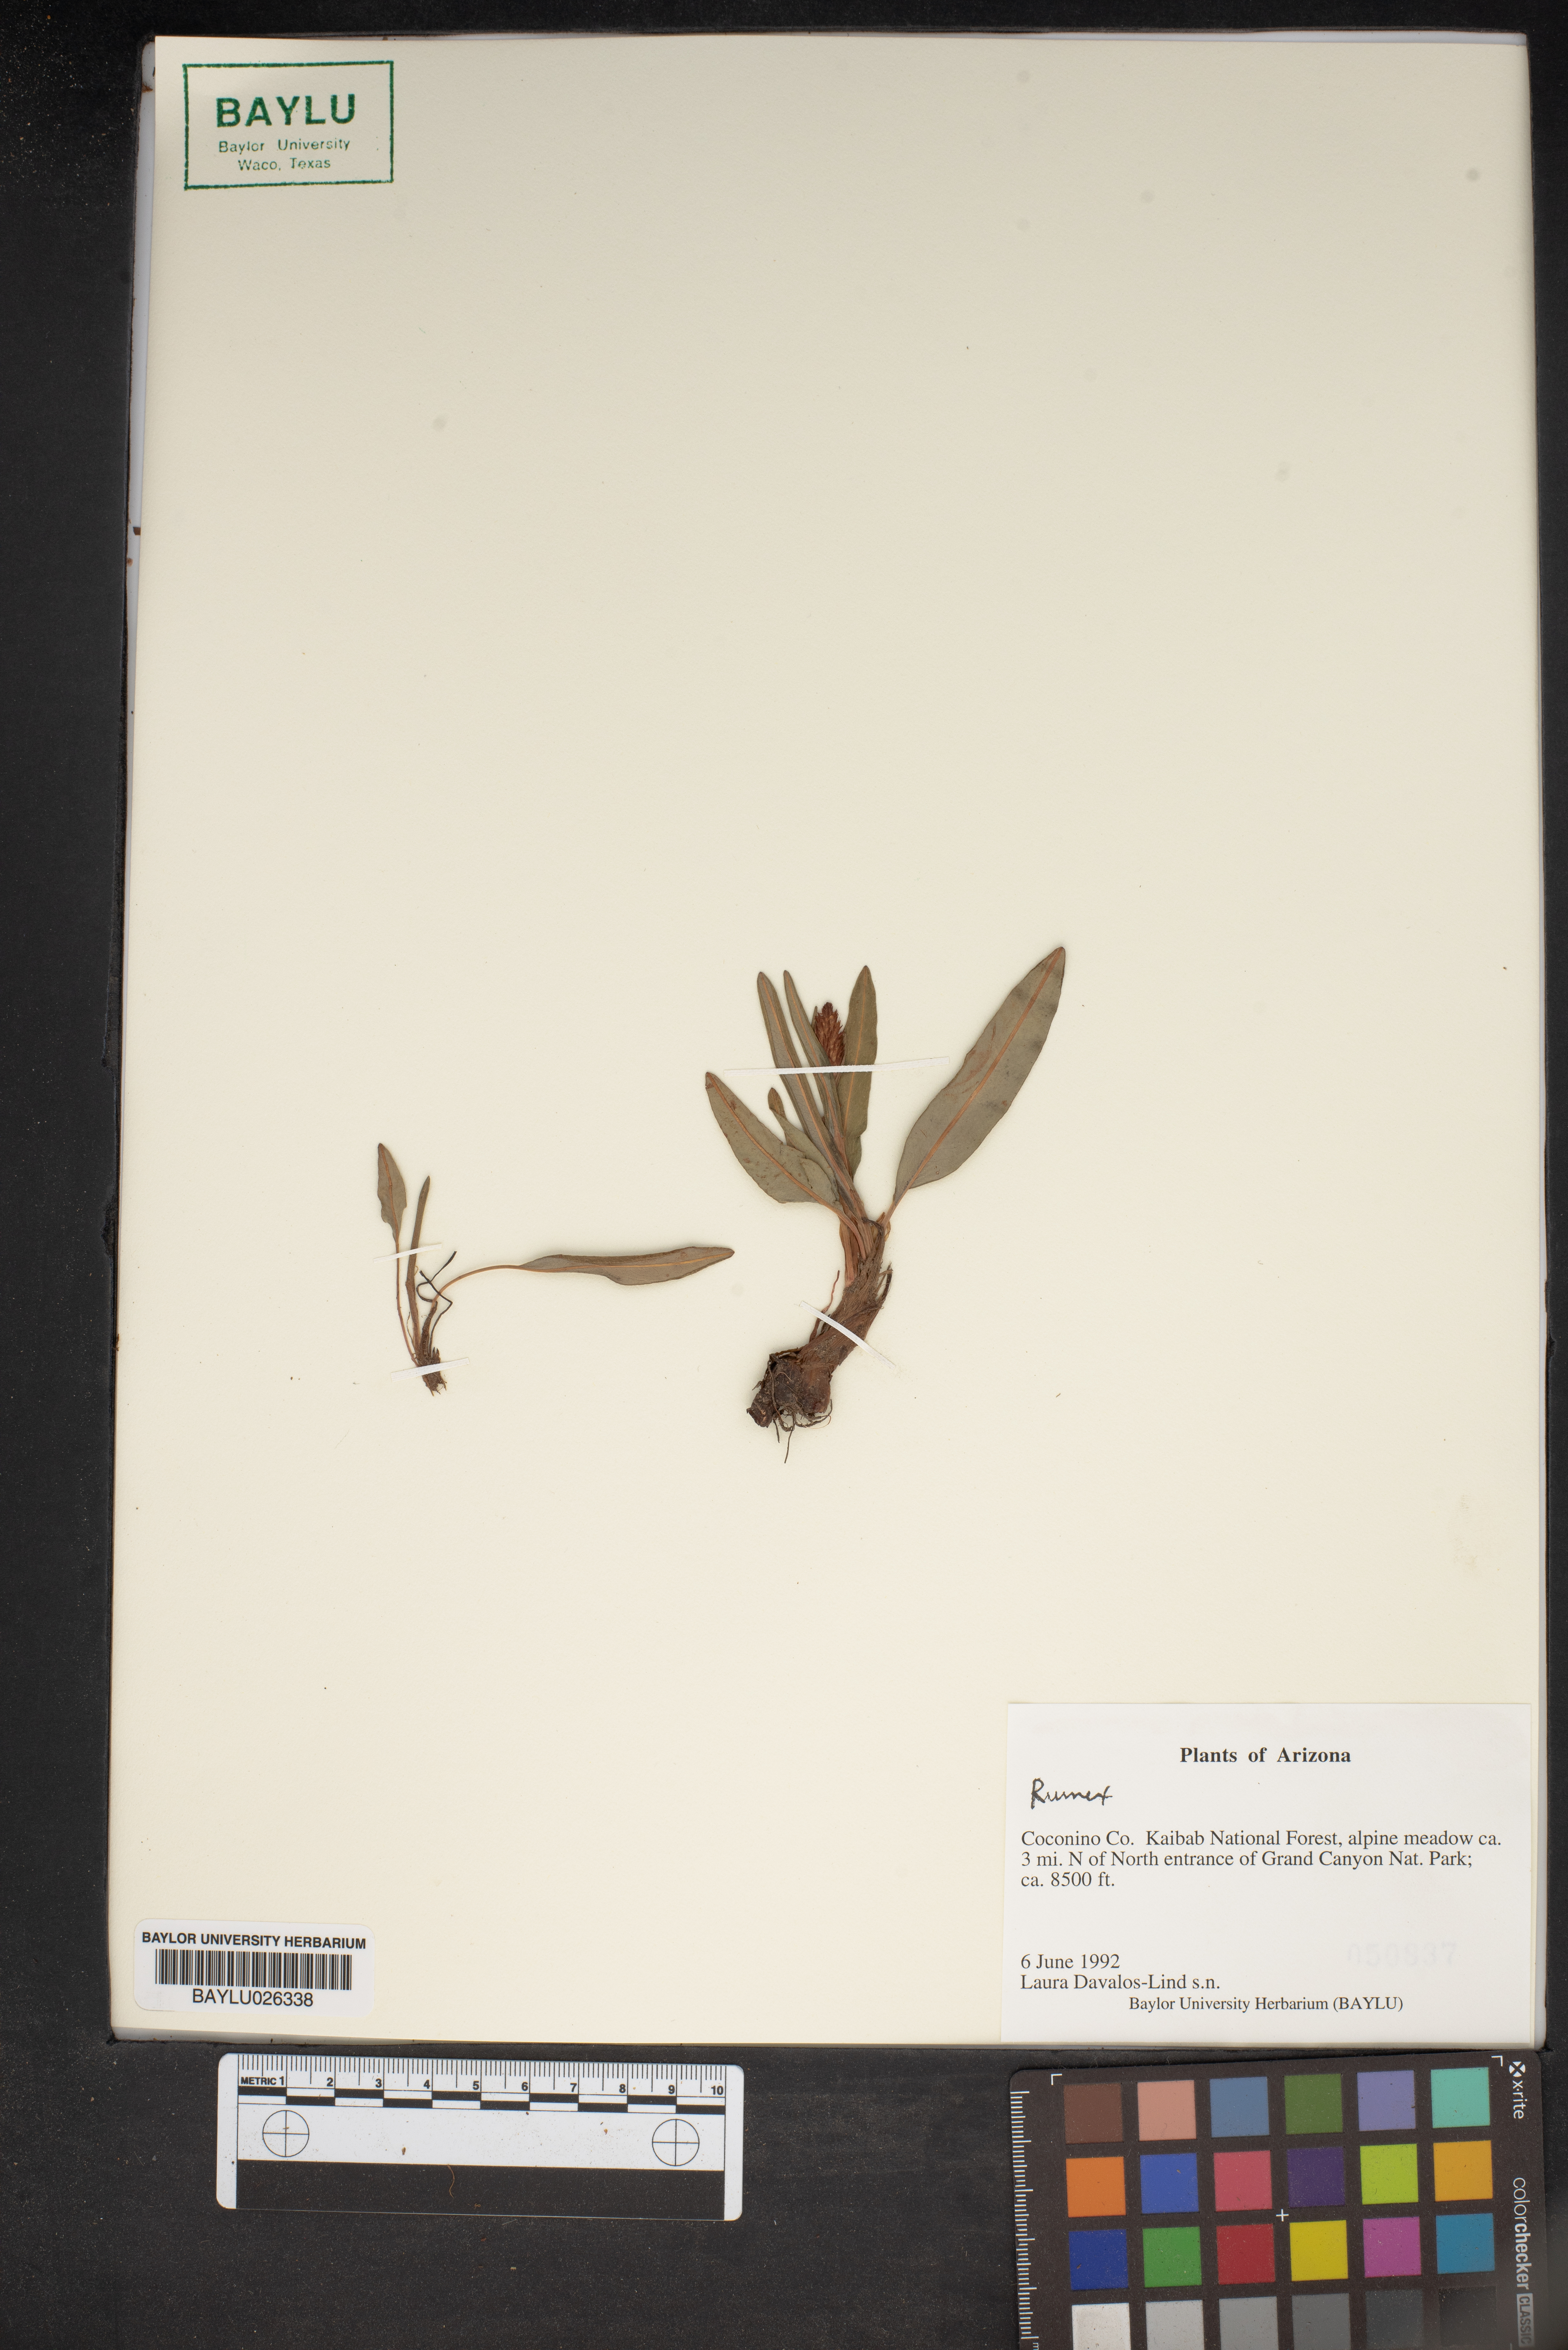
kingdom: Plantae
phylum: Tracheophyta
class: Magnoliopsida
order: Caryophyllales
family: Polygonaceae
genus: Rumex
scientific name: Rumex
